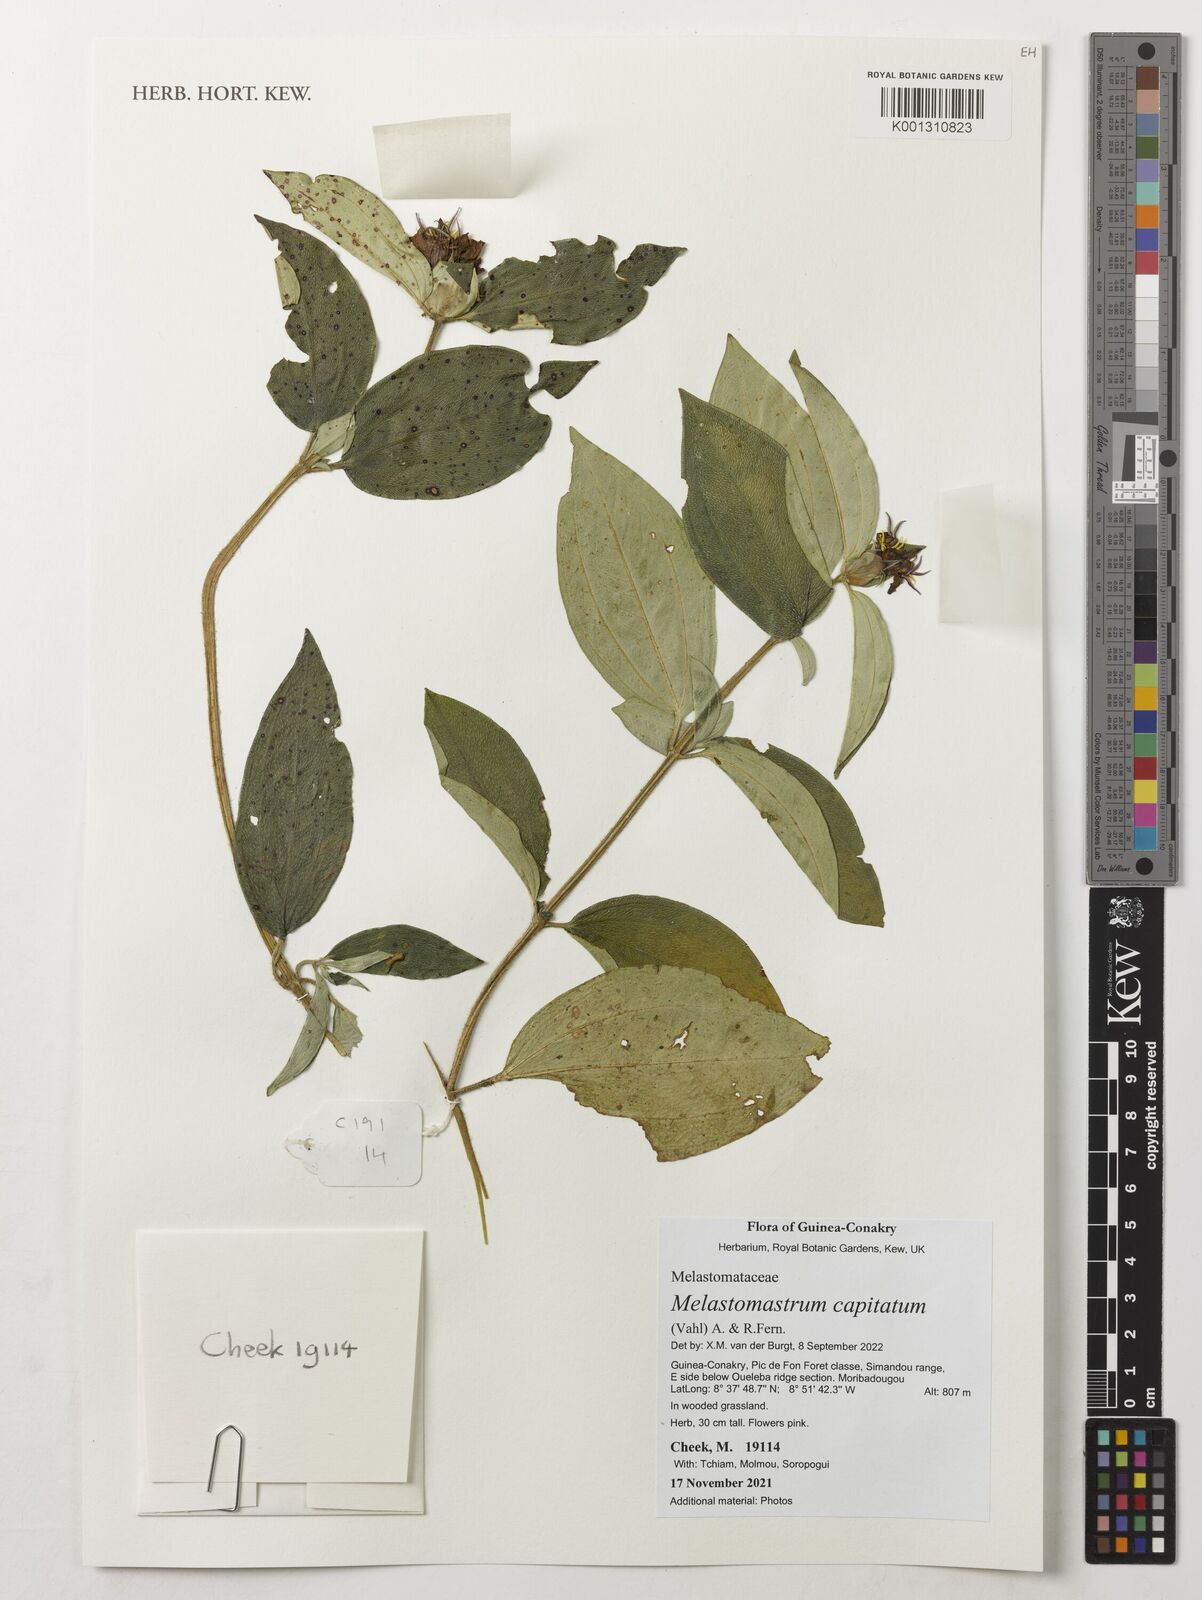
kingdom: Plantae
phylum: Tracheophyta
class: Magnoliopsida
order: Myrtales
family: Melastomataceae
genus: Melastomastrum
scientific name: Melastomastrum capitatum
